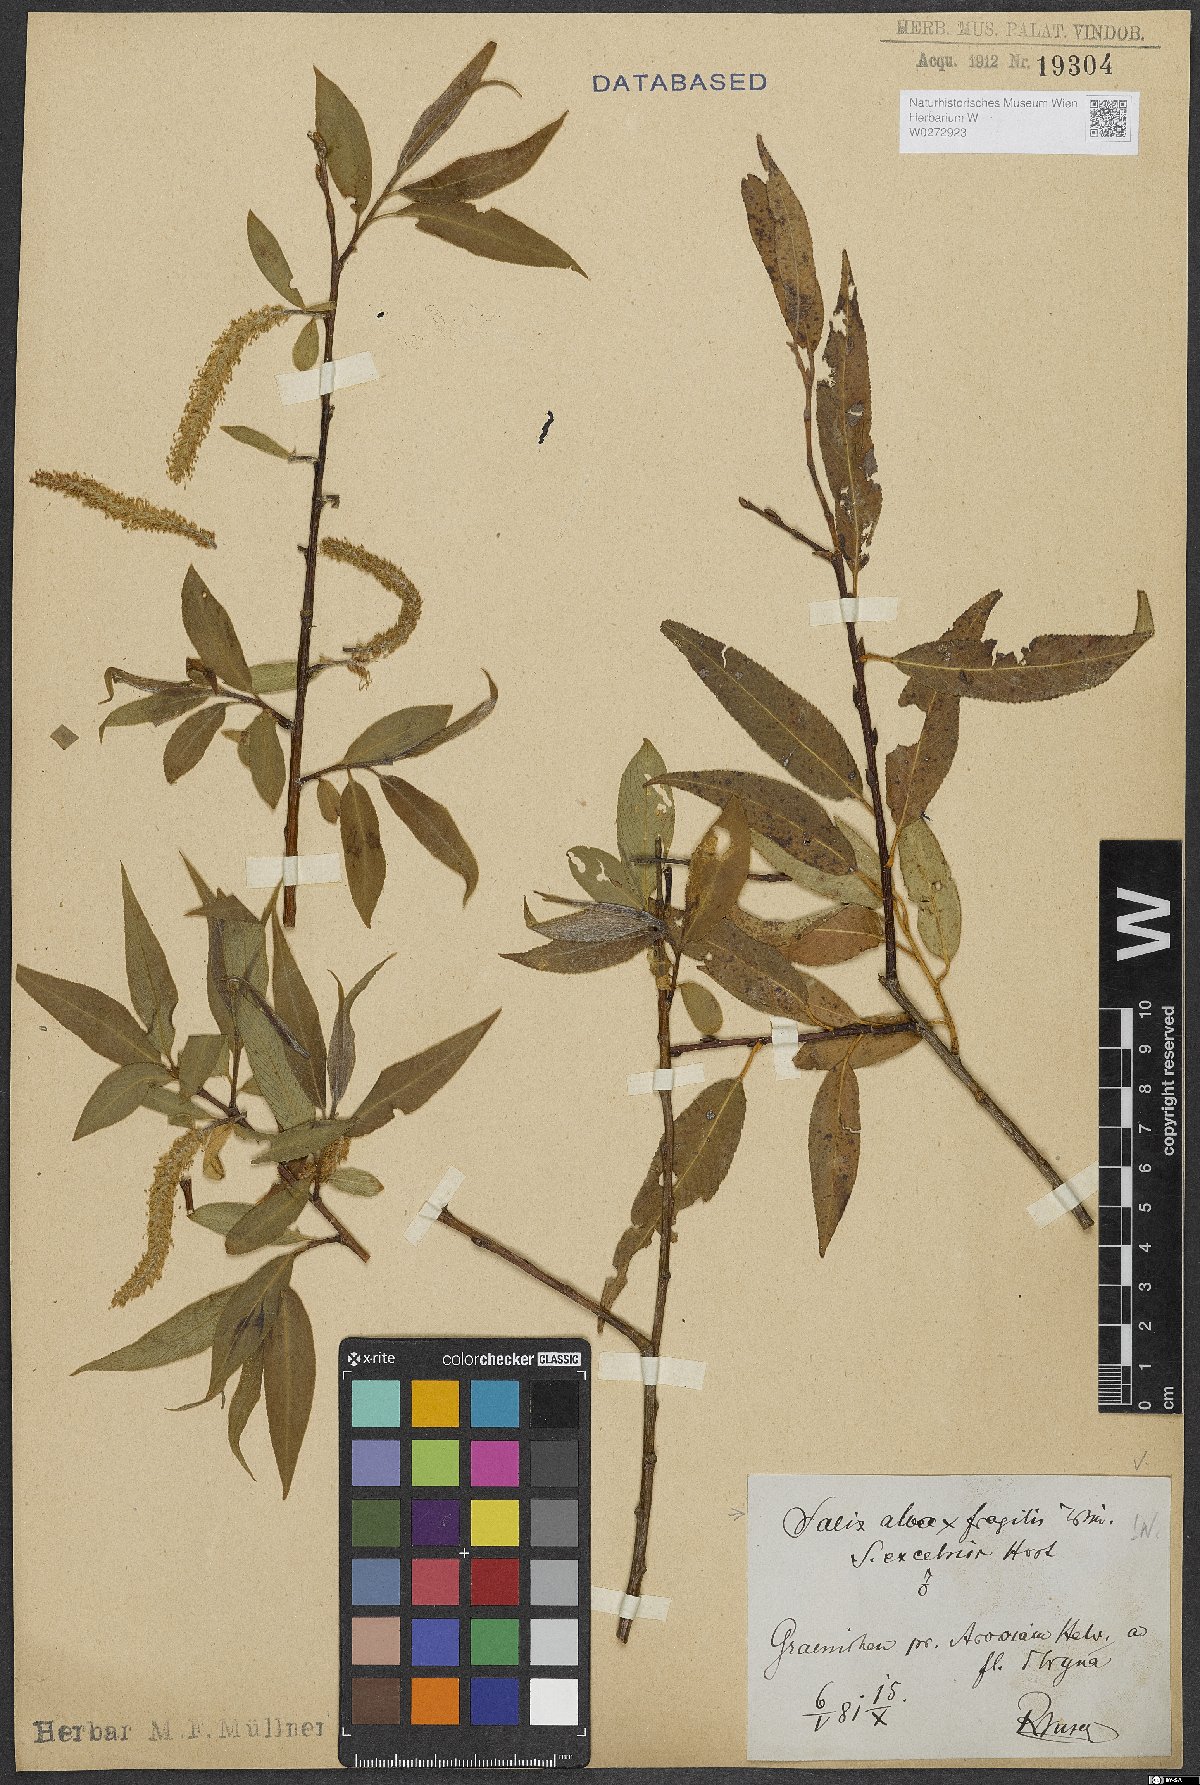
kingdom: Plantae
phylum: Tracheophyta
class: Magnoliopsida
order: Malpighiales
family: Salicaceae
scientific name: Salicaceae
